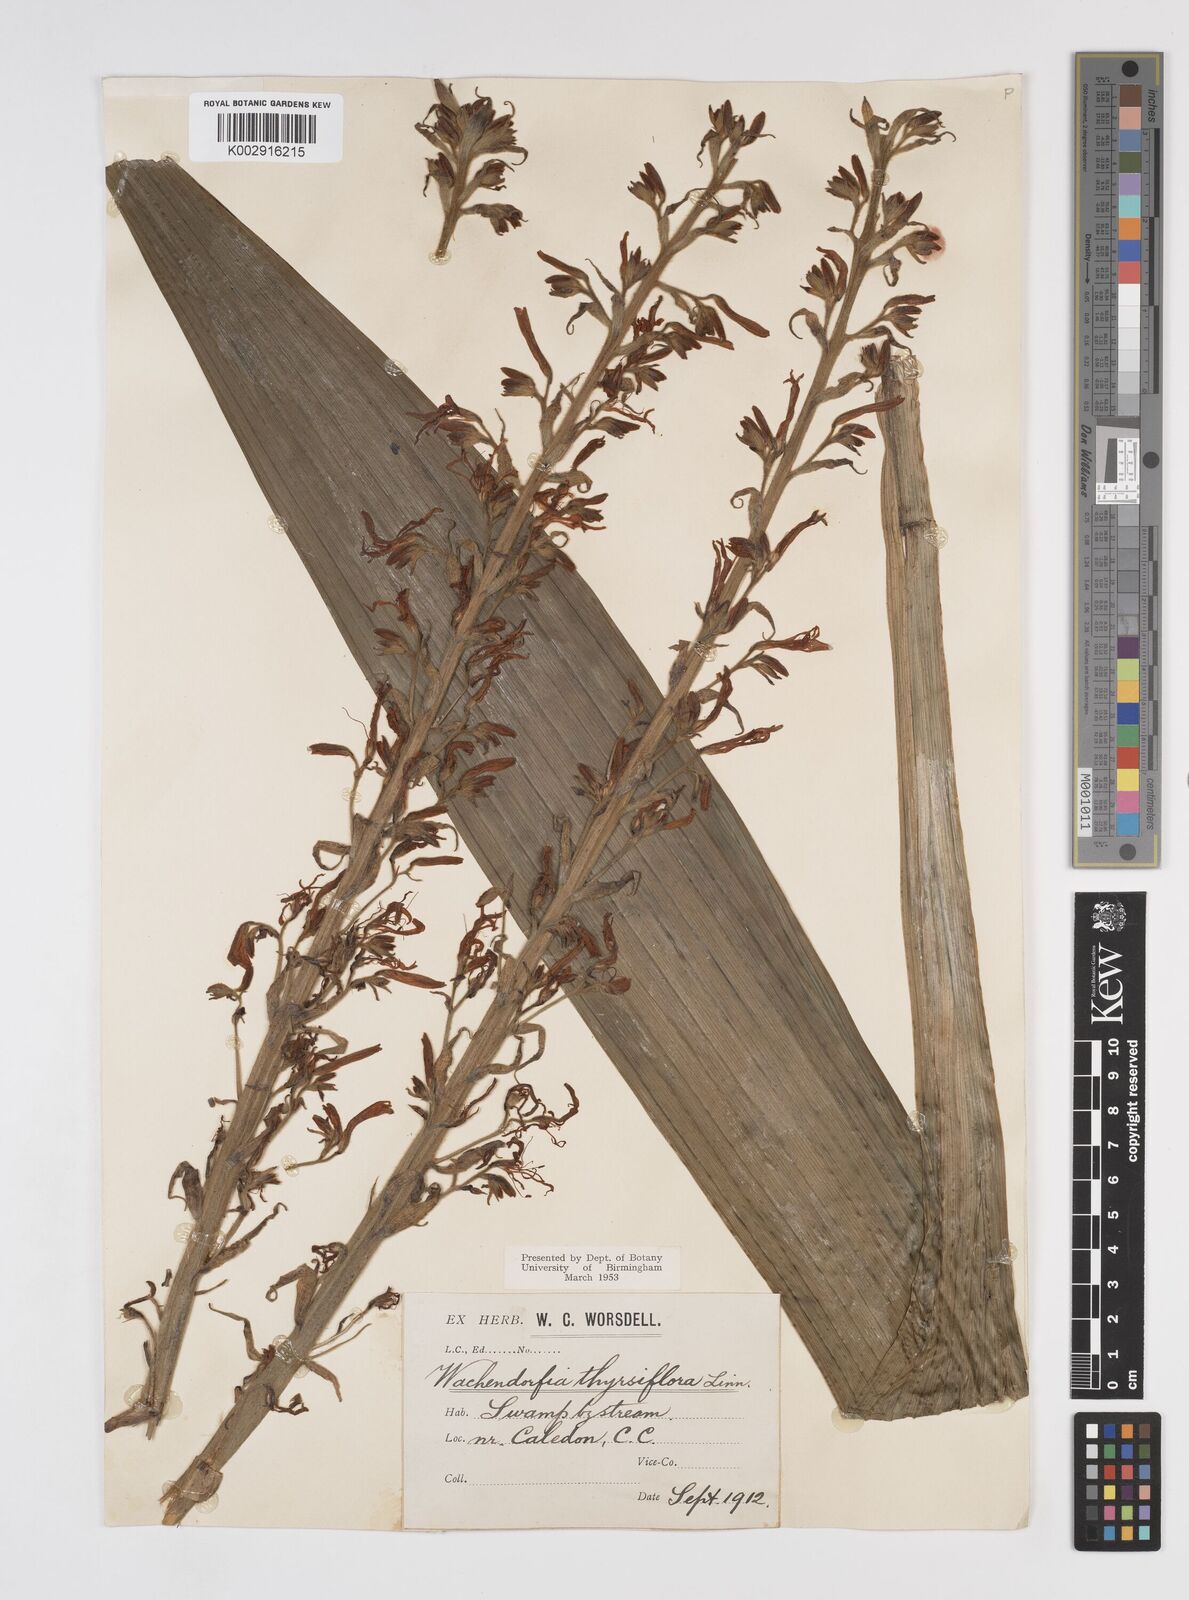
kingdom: Plantae
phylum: Tracheophyta
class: Liliopsida
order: Commelinales
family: Haemodoraceae
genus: Wachendorfia
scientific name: Wachendorfia thyrsiflora
